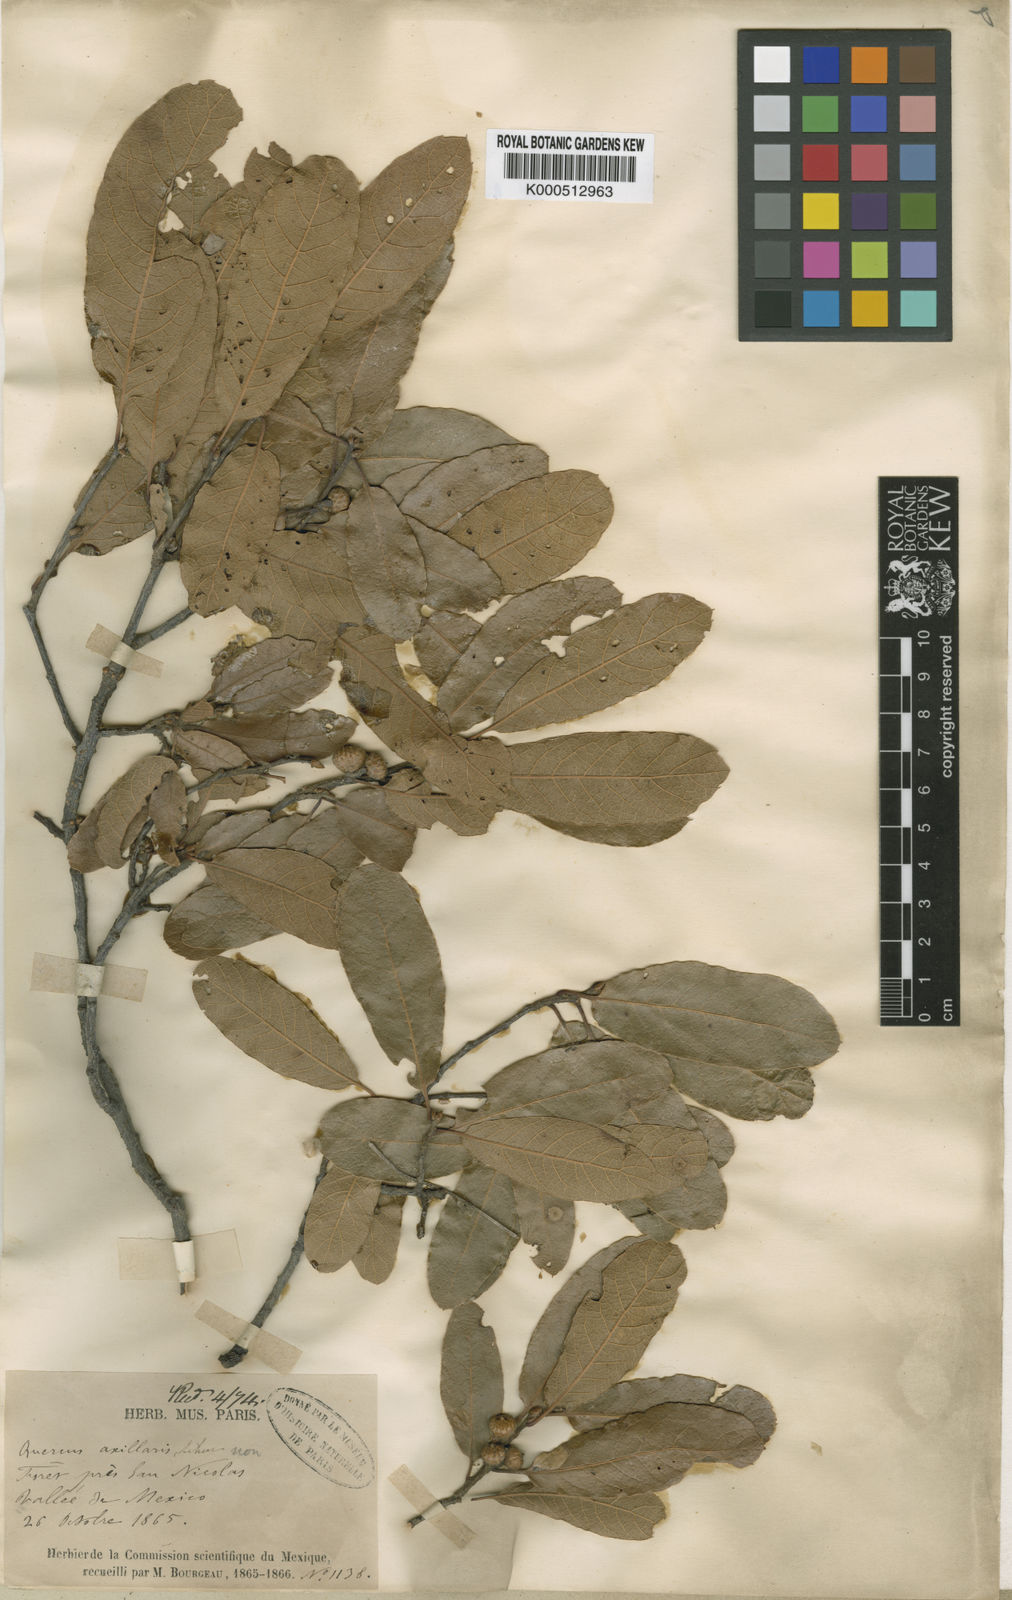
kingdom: Plantae
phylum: Tracheophyta
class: Magnoliopsida
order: Fagales
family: Fagaceae
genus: Quercus
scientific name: Quercus castanea
